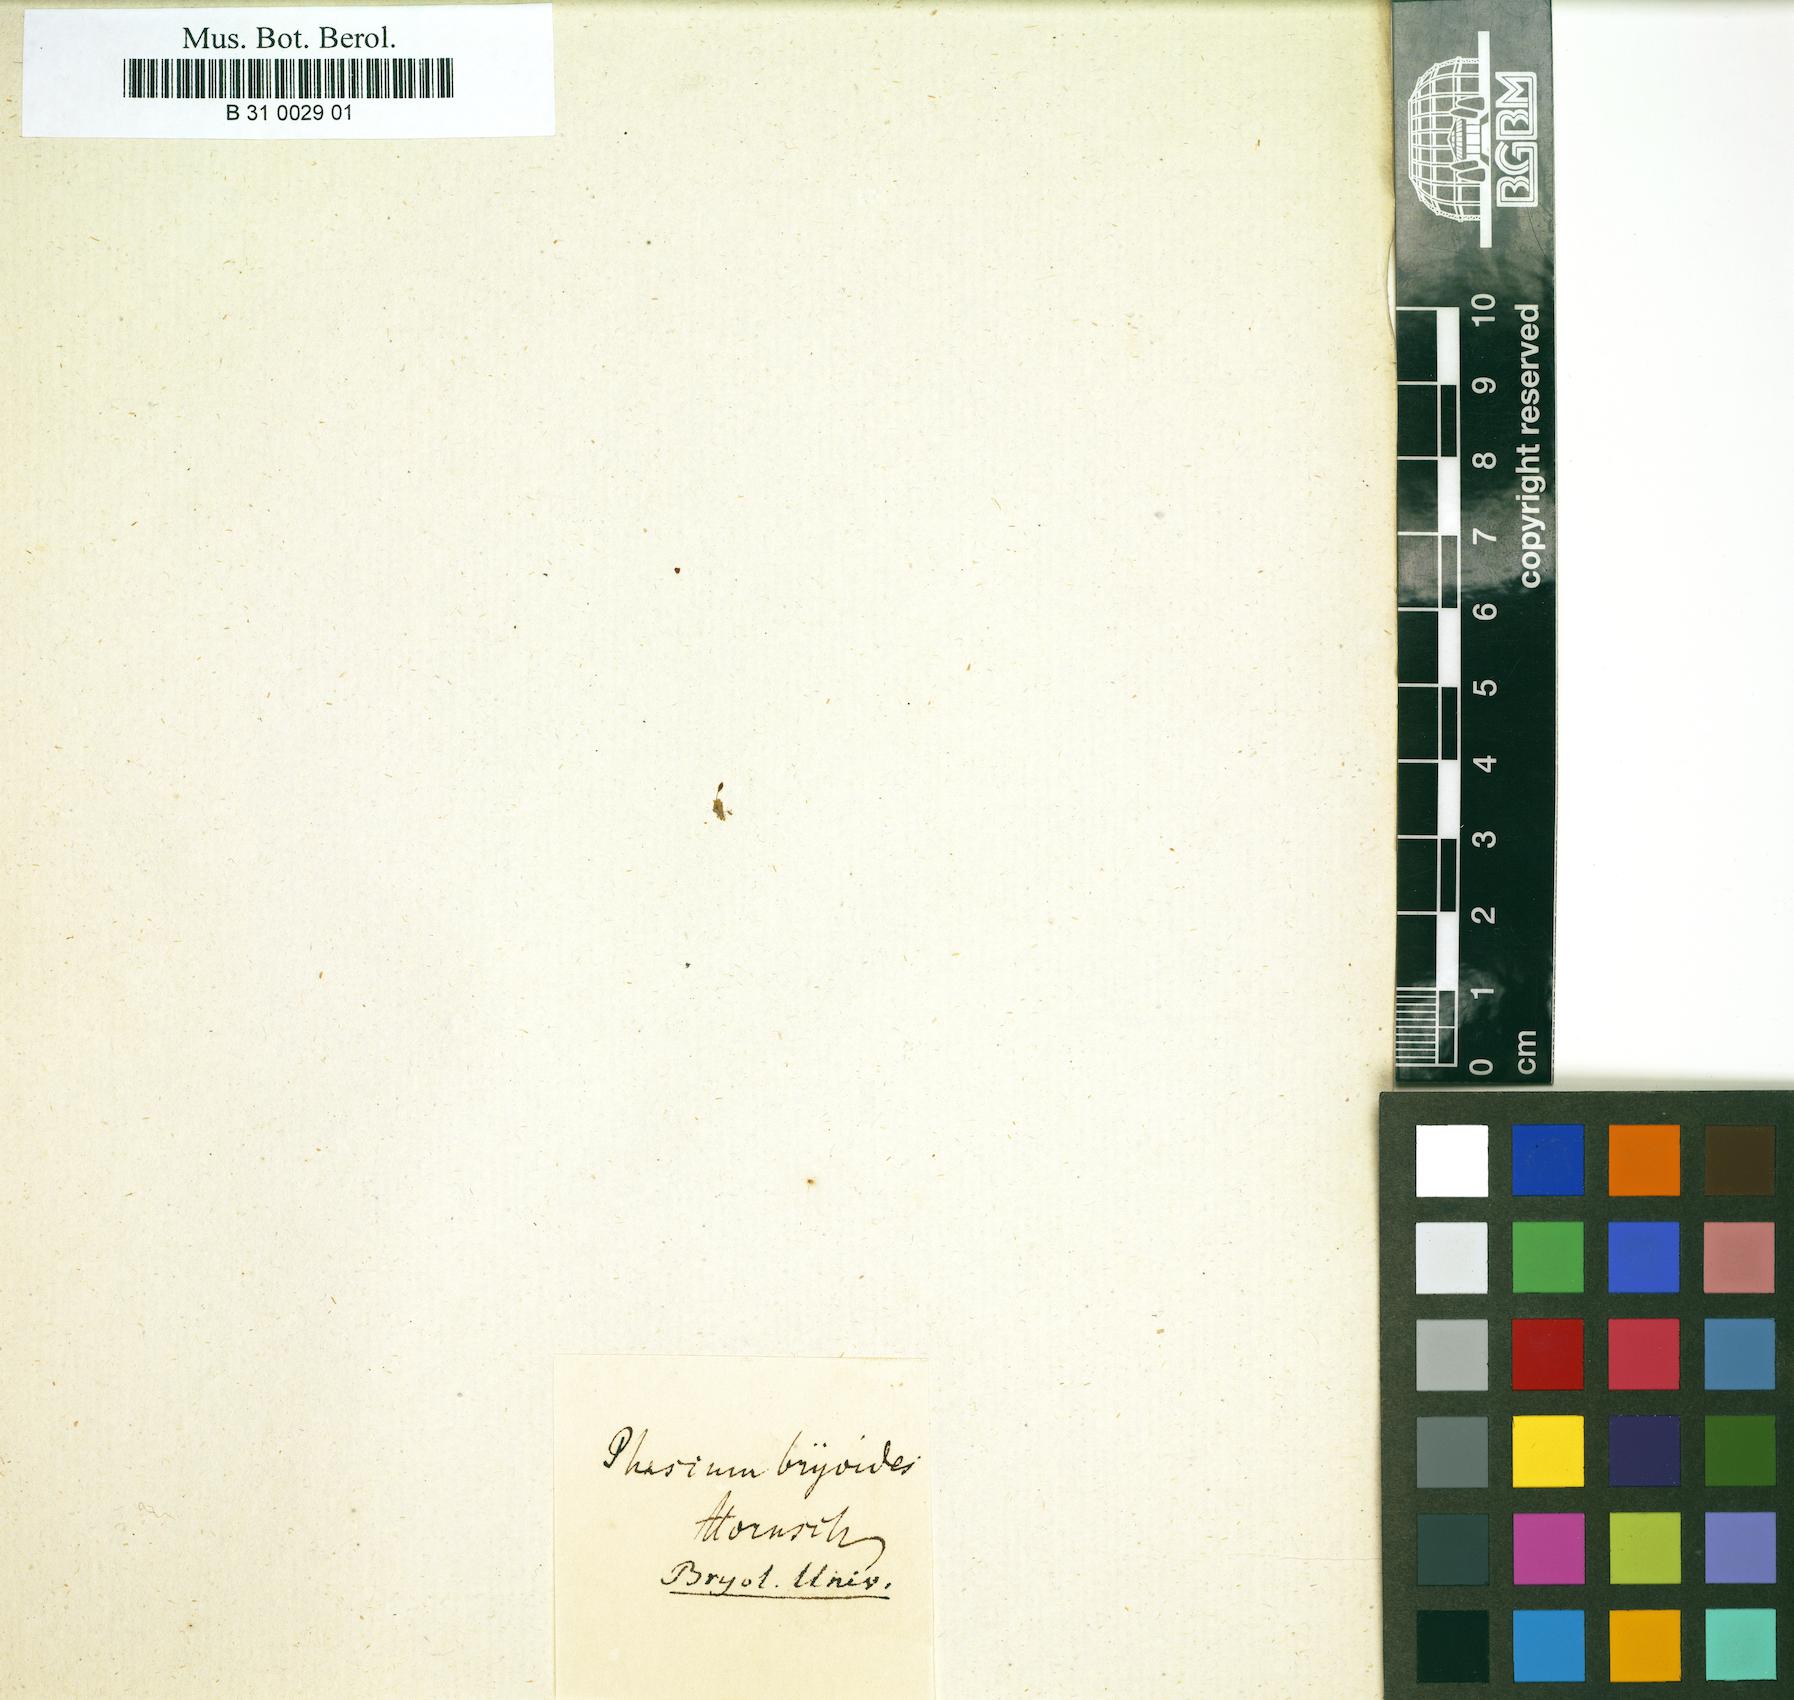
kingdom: Plantae
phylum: Bryophyta
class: Bryopsida
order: Pottiales
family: Pottiaceae
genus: Tortula
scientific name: Tortula protobryoides
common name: Tall pottia
